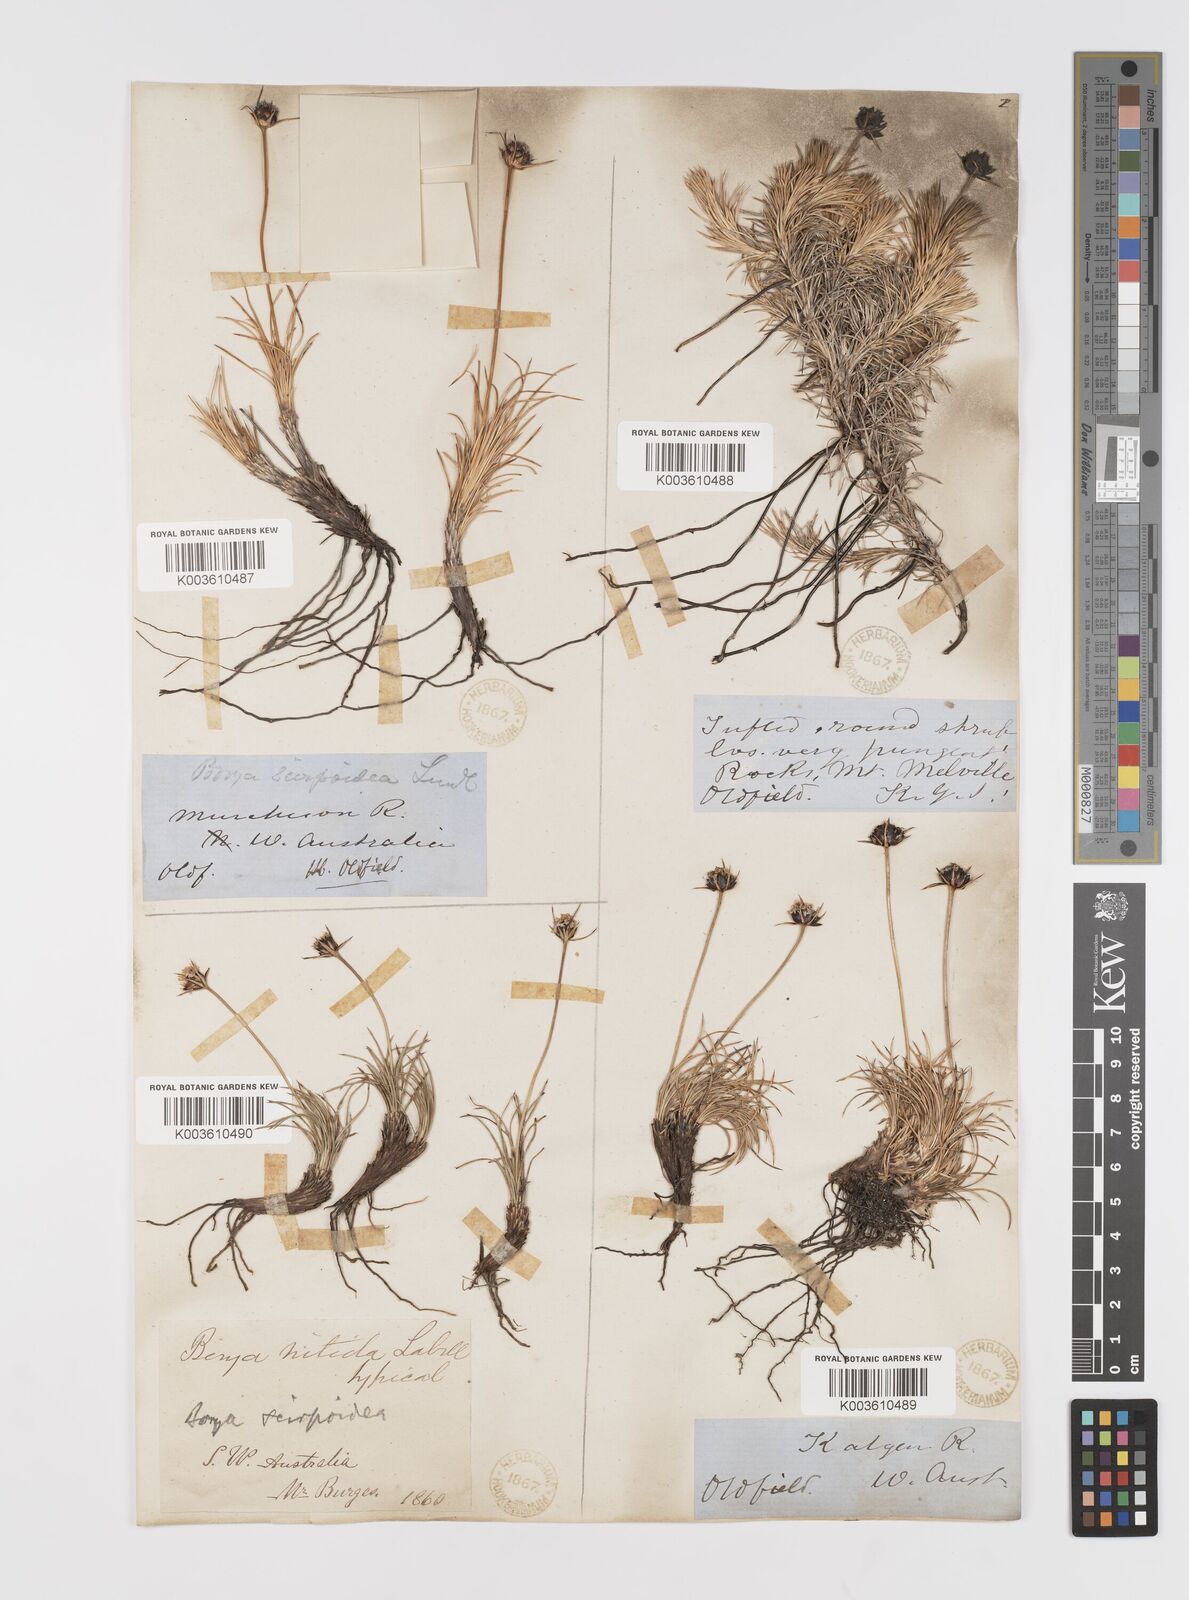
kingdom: Plantae
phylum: Tracheophyta
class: Liliopsida
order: Asparagales
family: Boryaceae
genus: Borya
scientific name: Borya nitida
